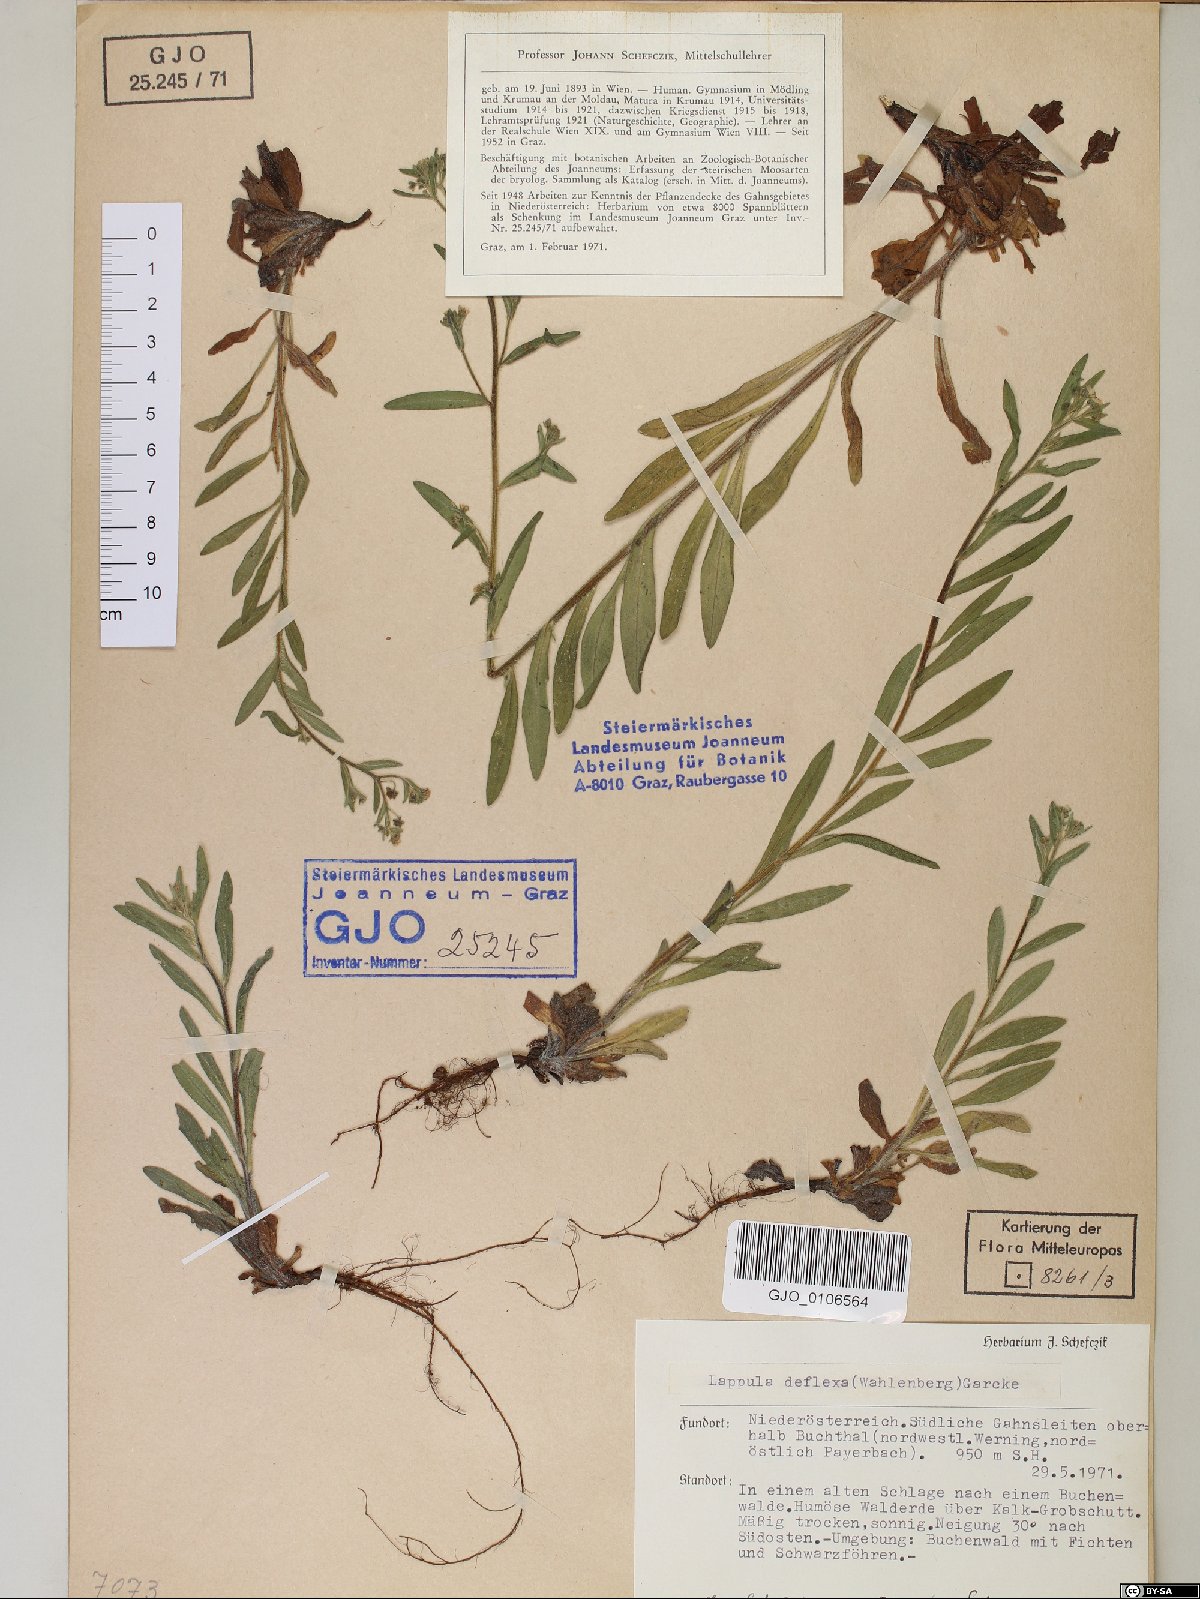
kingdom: Plantae
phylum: Tracheophyta
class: Magnoliopsida
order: Boraginales
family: Boraginaceae
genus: Hackelia
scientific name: Hackelia deflexa
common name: Nodding stickseed
